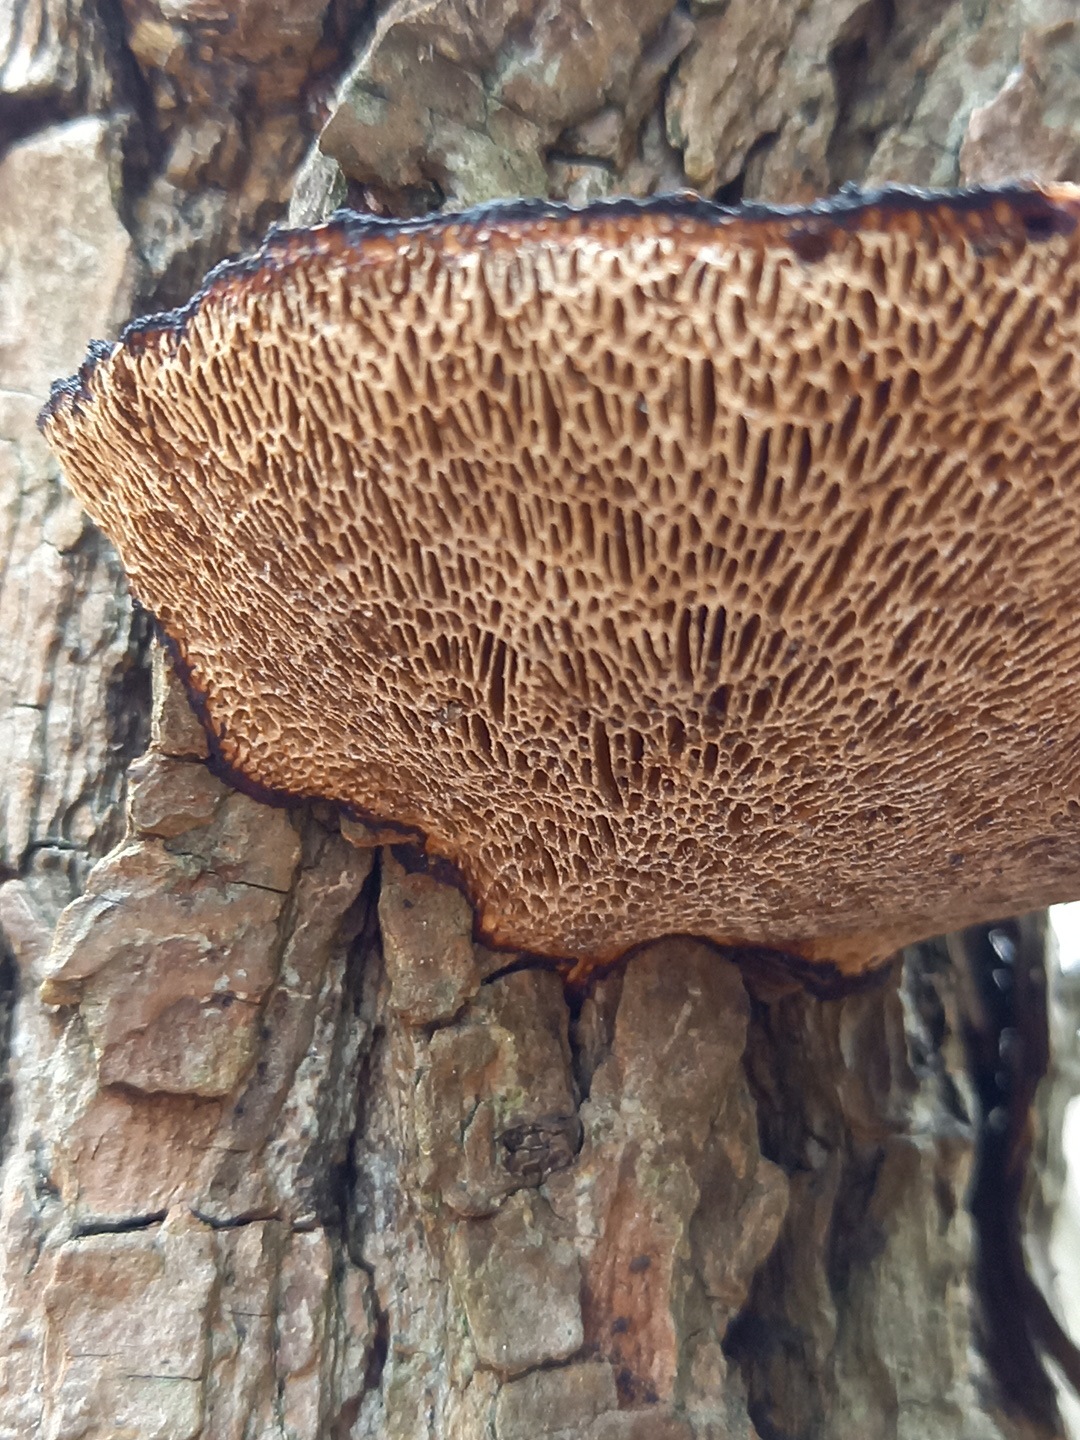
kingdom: Fungi
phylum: Basidiomycota
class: Agaricomycetes
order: Polyporales
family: Polyporaceae
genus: Daedaleopsis
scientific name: Daedaleopsis confragosa
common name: rødmende læderporesvamp
